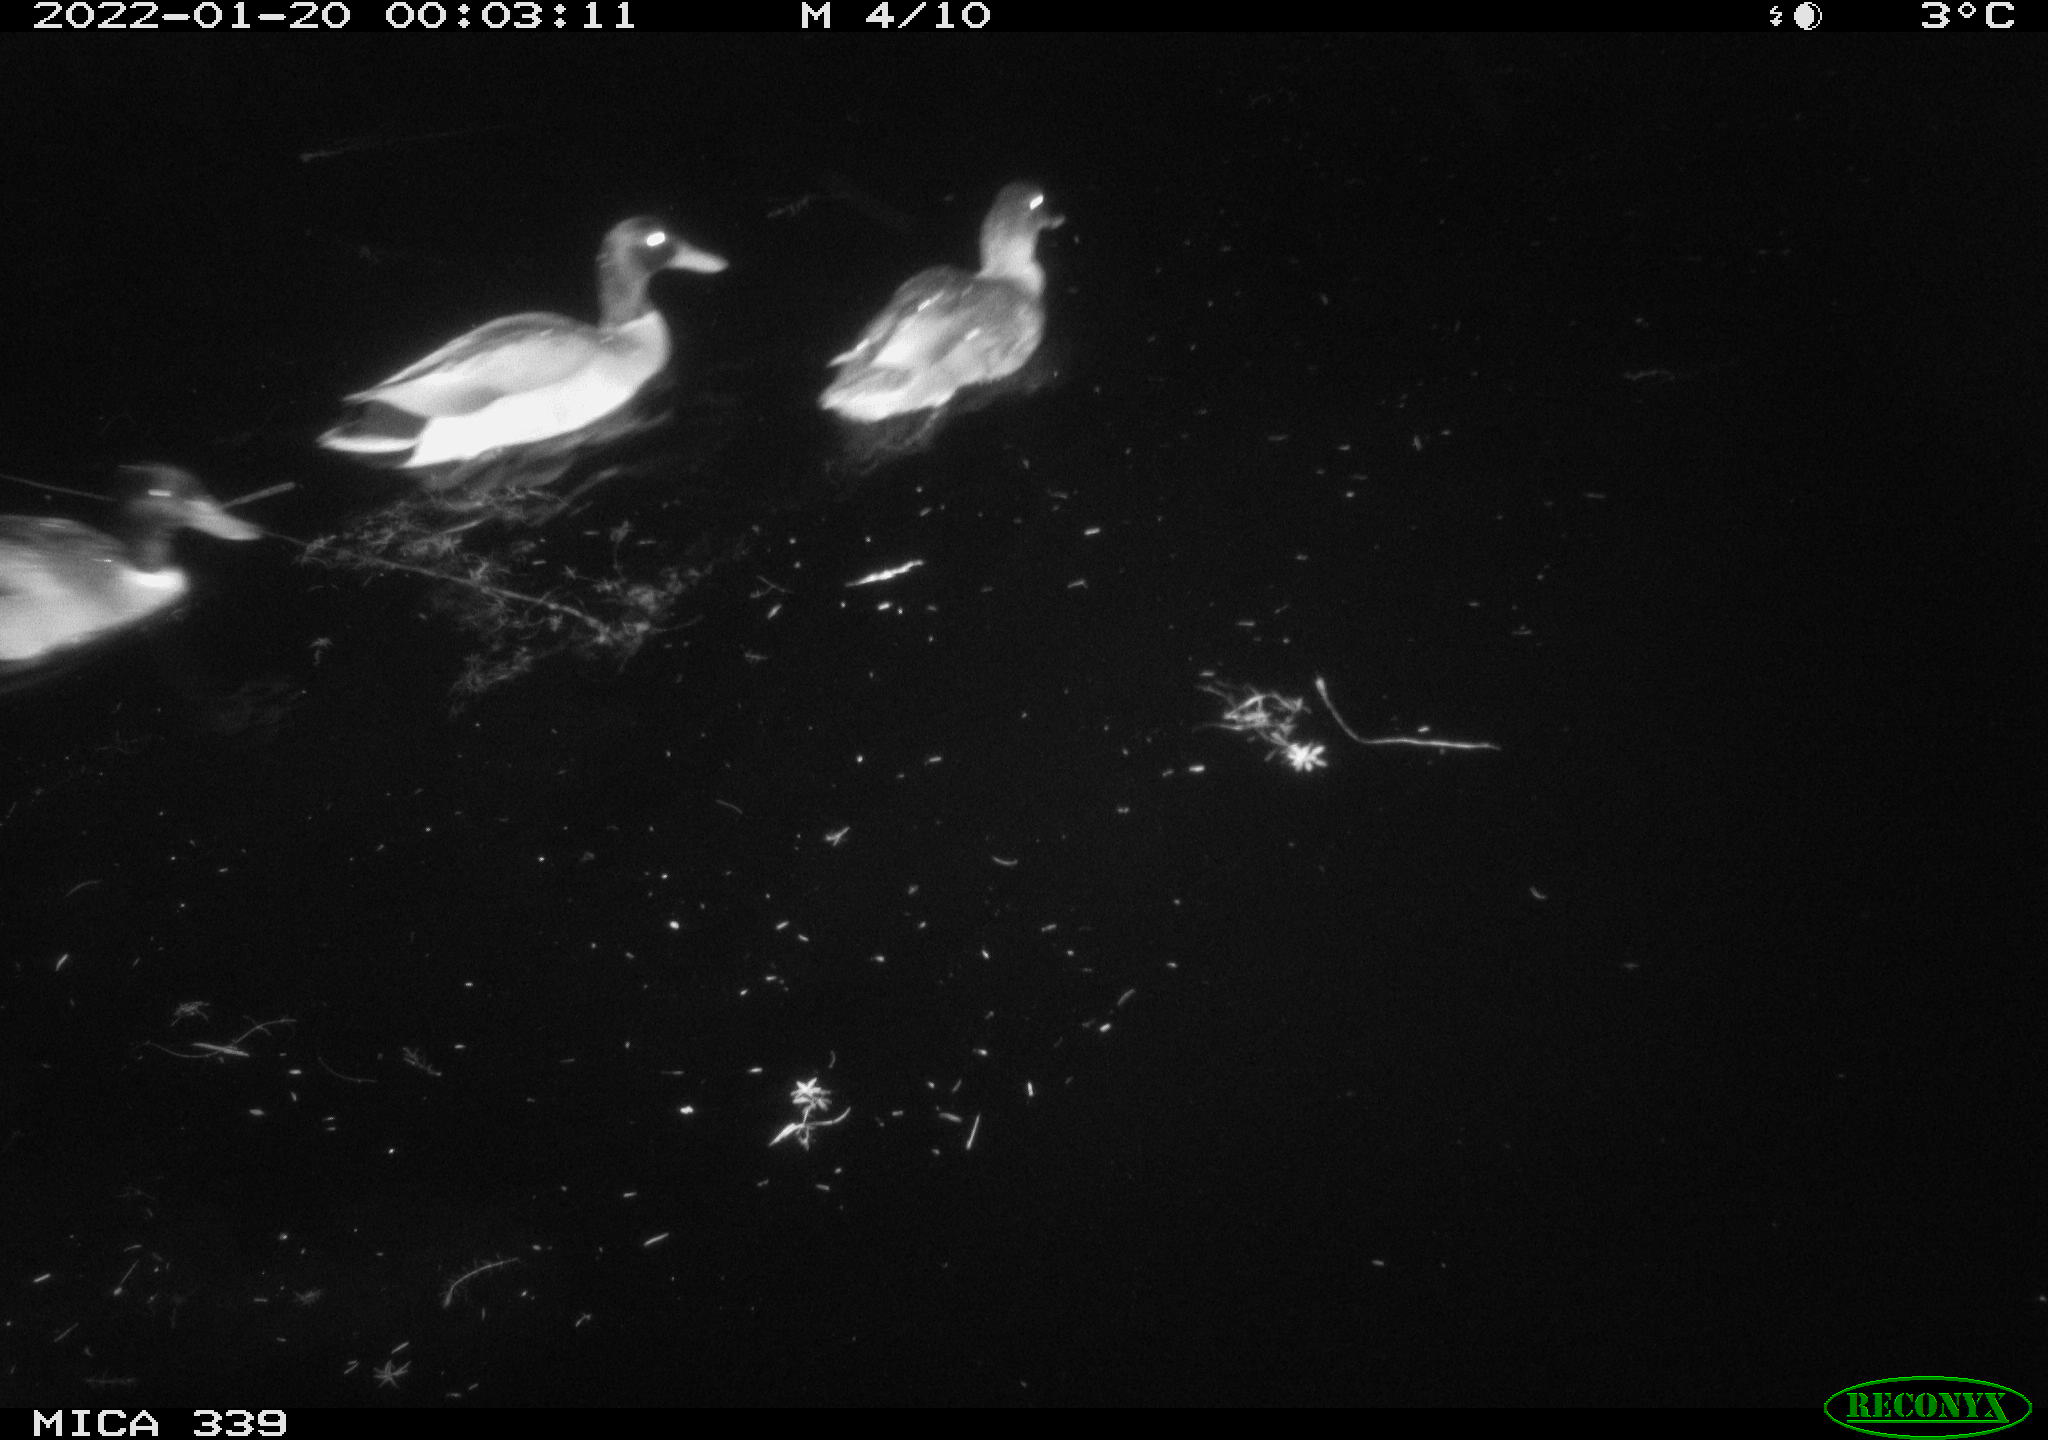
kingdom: Animalia
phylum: Chordata
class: Aves
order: Anseriformes
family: Anatidae
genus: Anas
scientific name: Anas platyrhynchos
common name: Mallard
